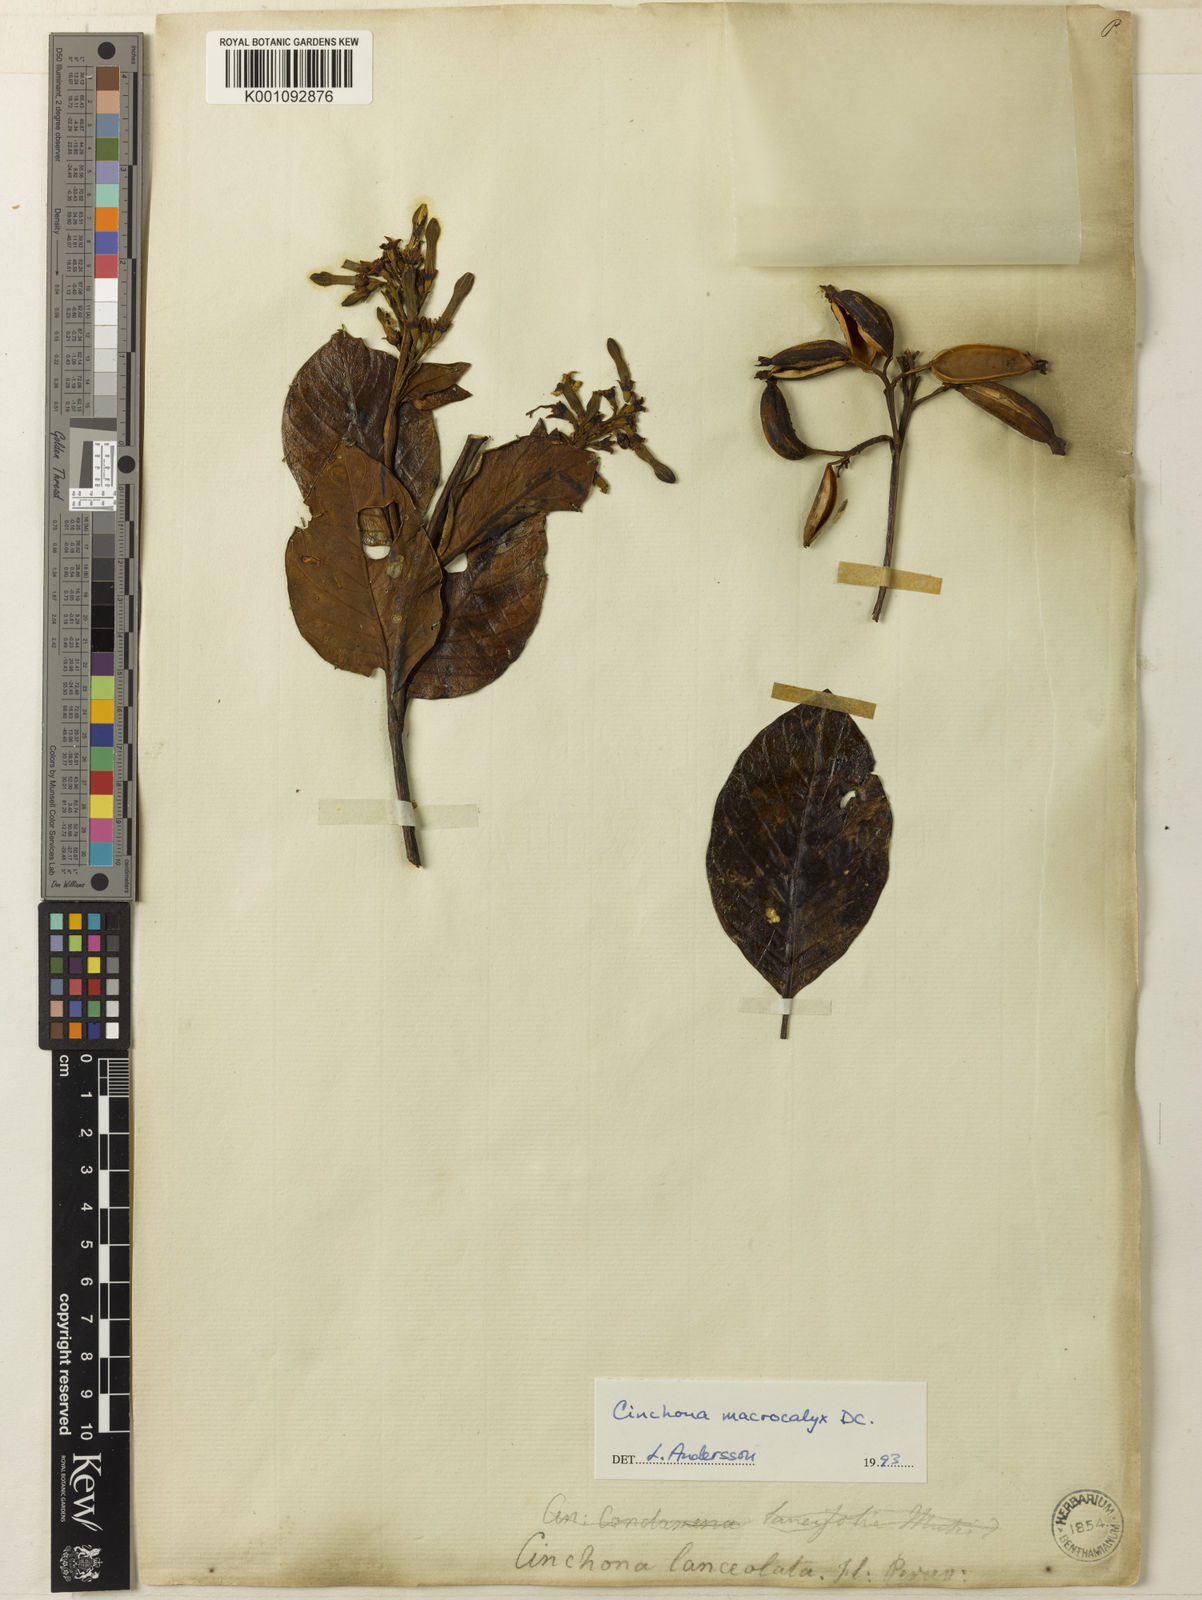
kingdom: Plantae
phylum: Tracheophyta
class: Magnoliopsida
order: Gentianales
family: Rubiaceae
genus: Cinchona
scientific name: Cinchona macrocalyx
